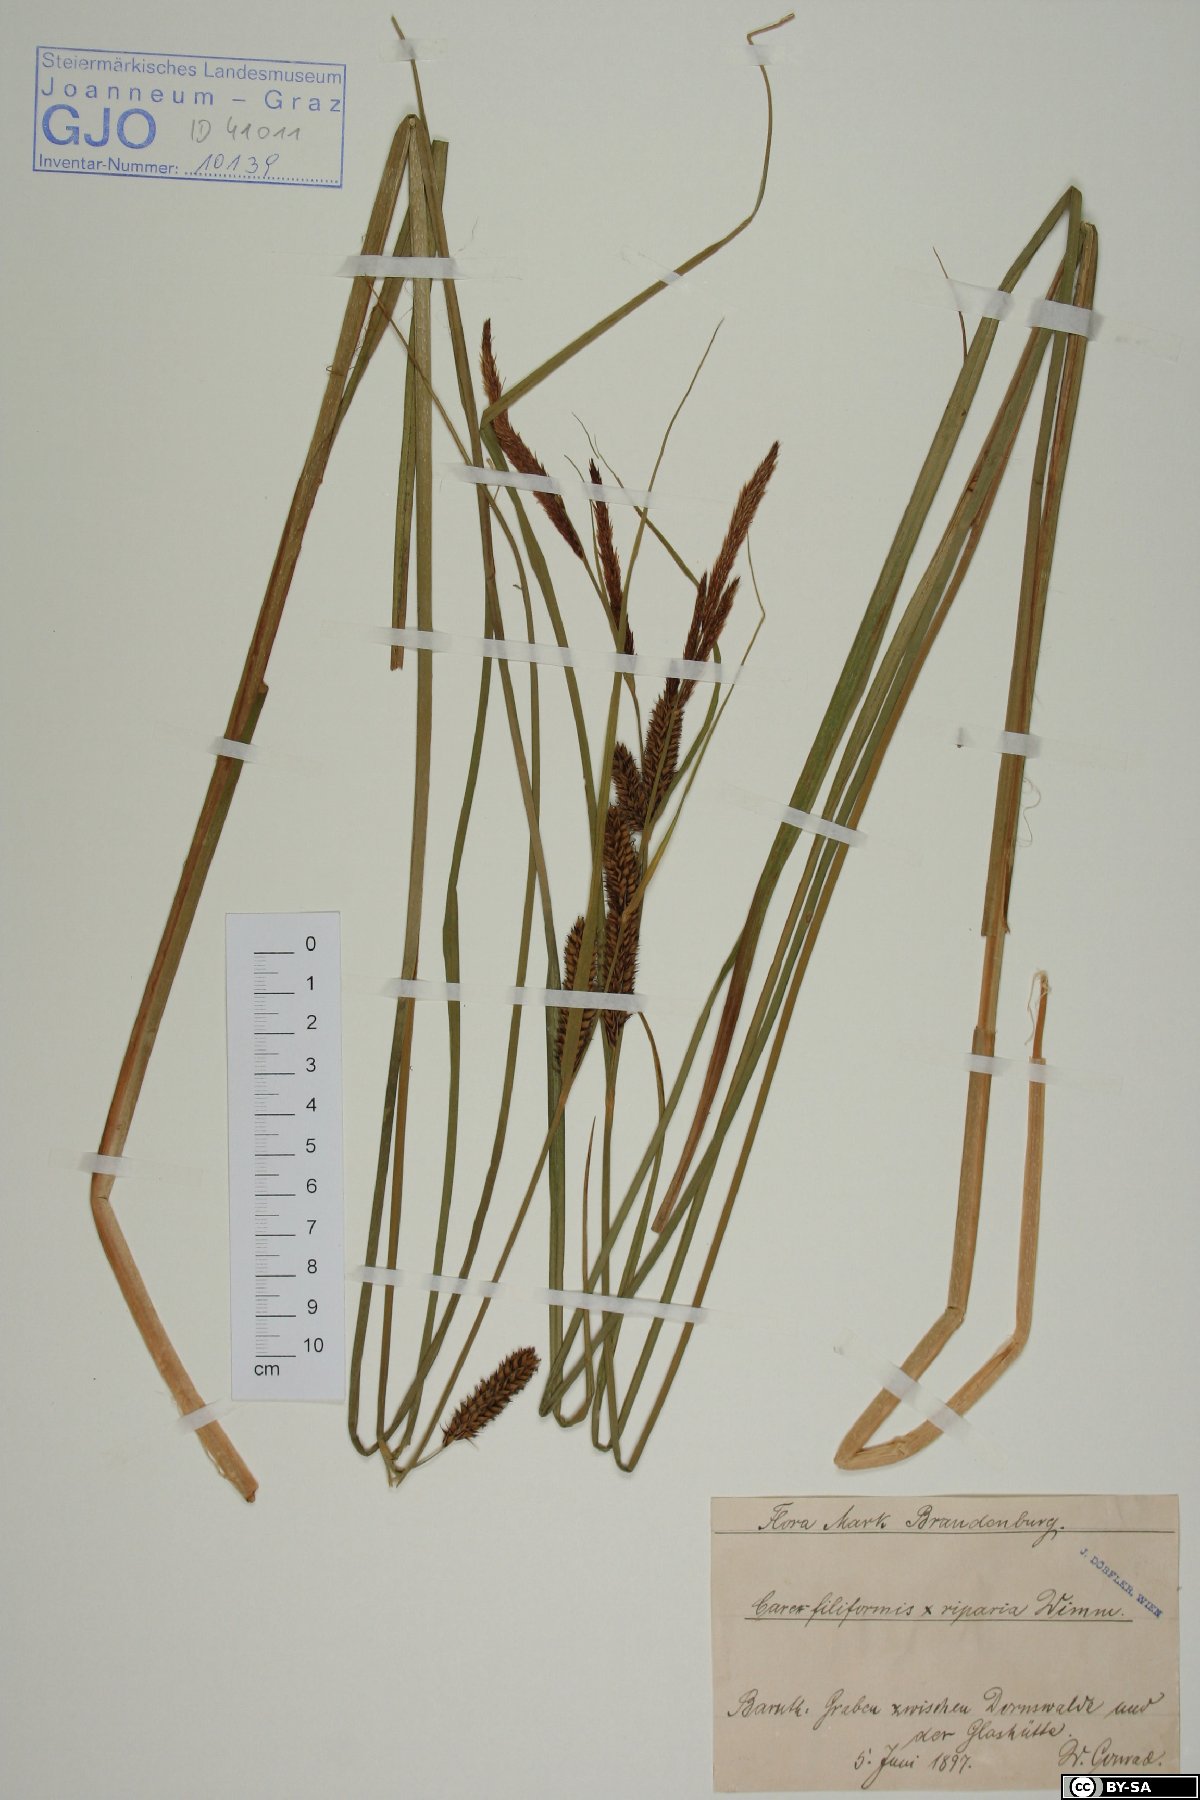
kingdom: Plantae
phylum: Tracheophyta
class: Liliopsida
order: Poales
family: Cyperaceae
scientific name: Cyperaceae
